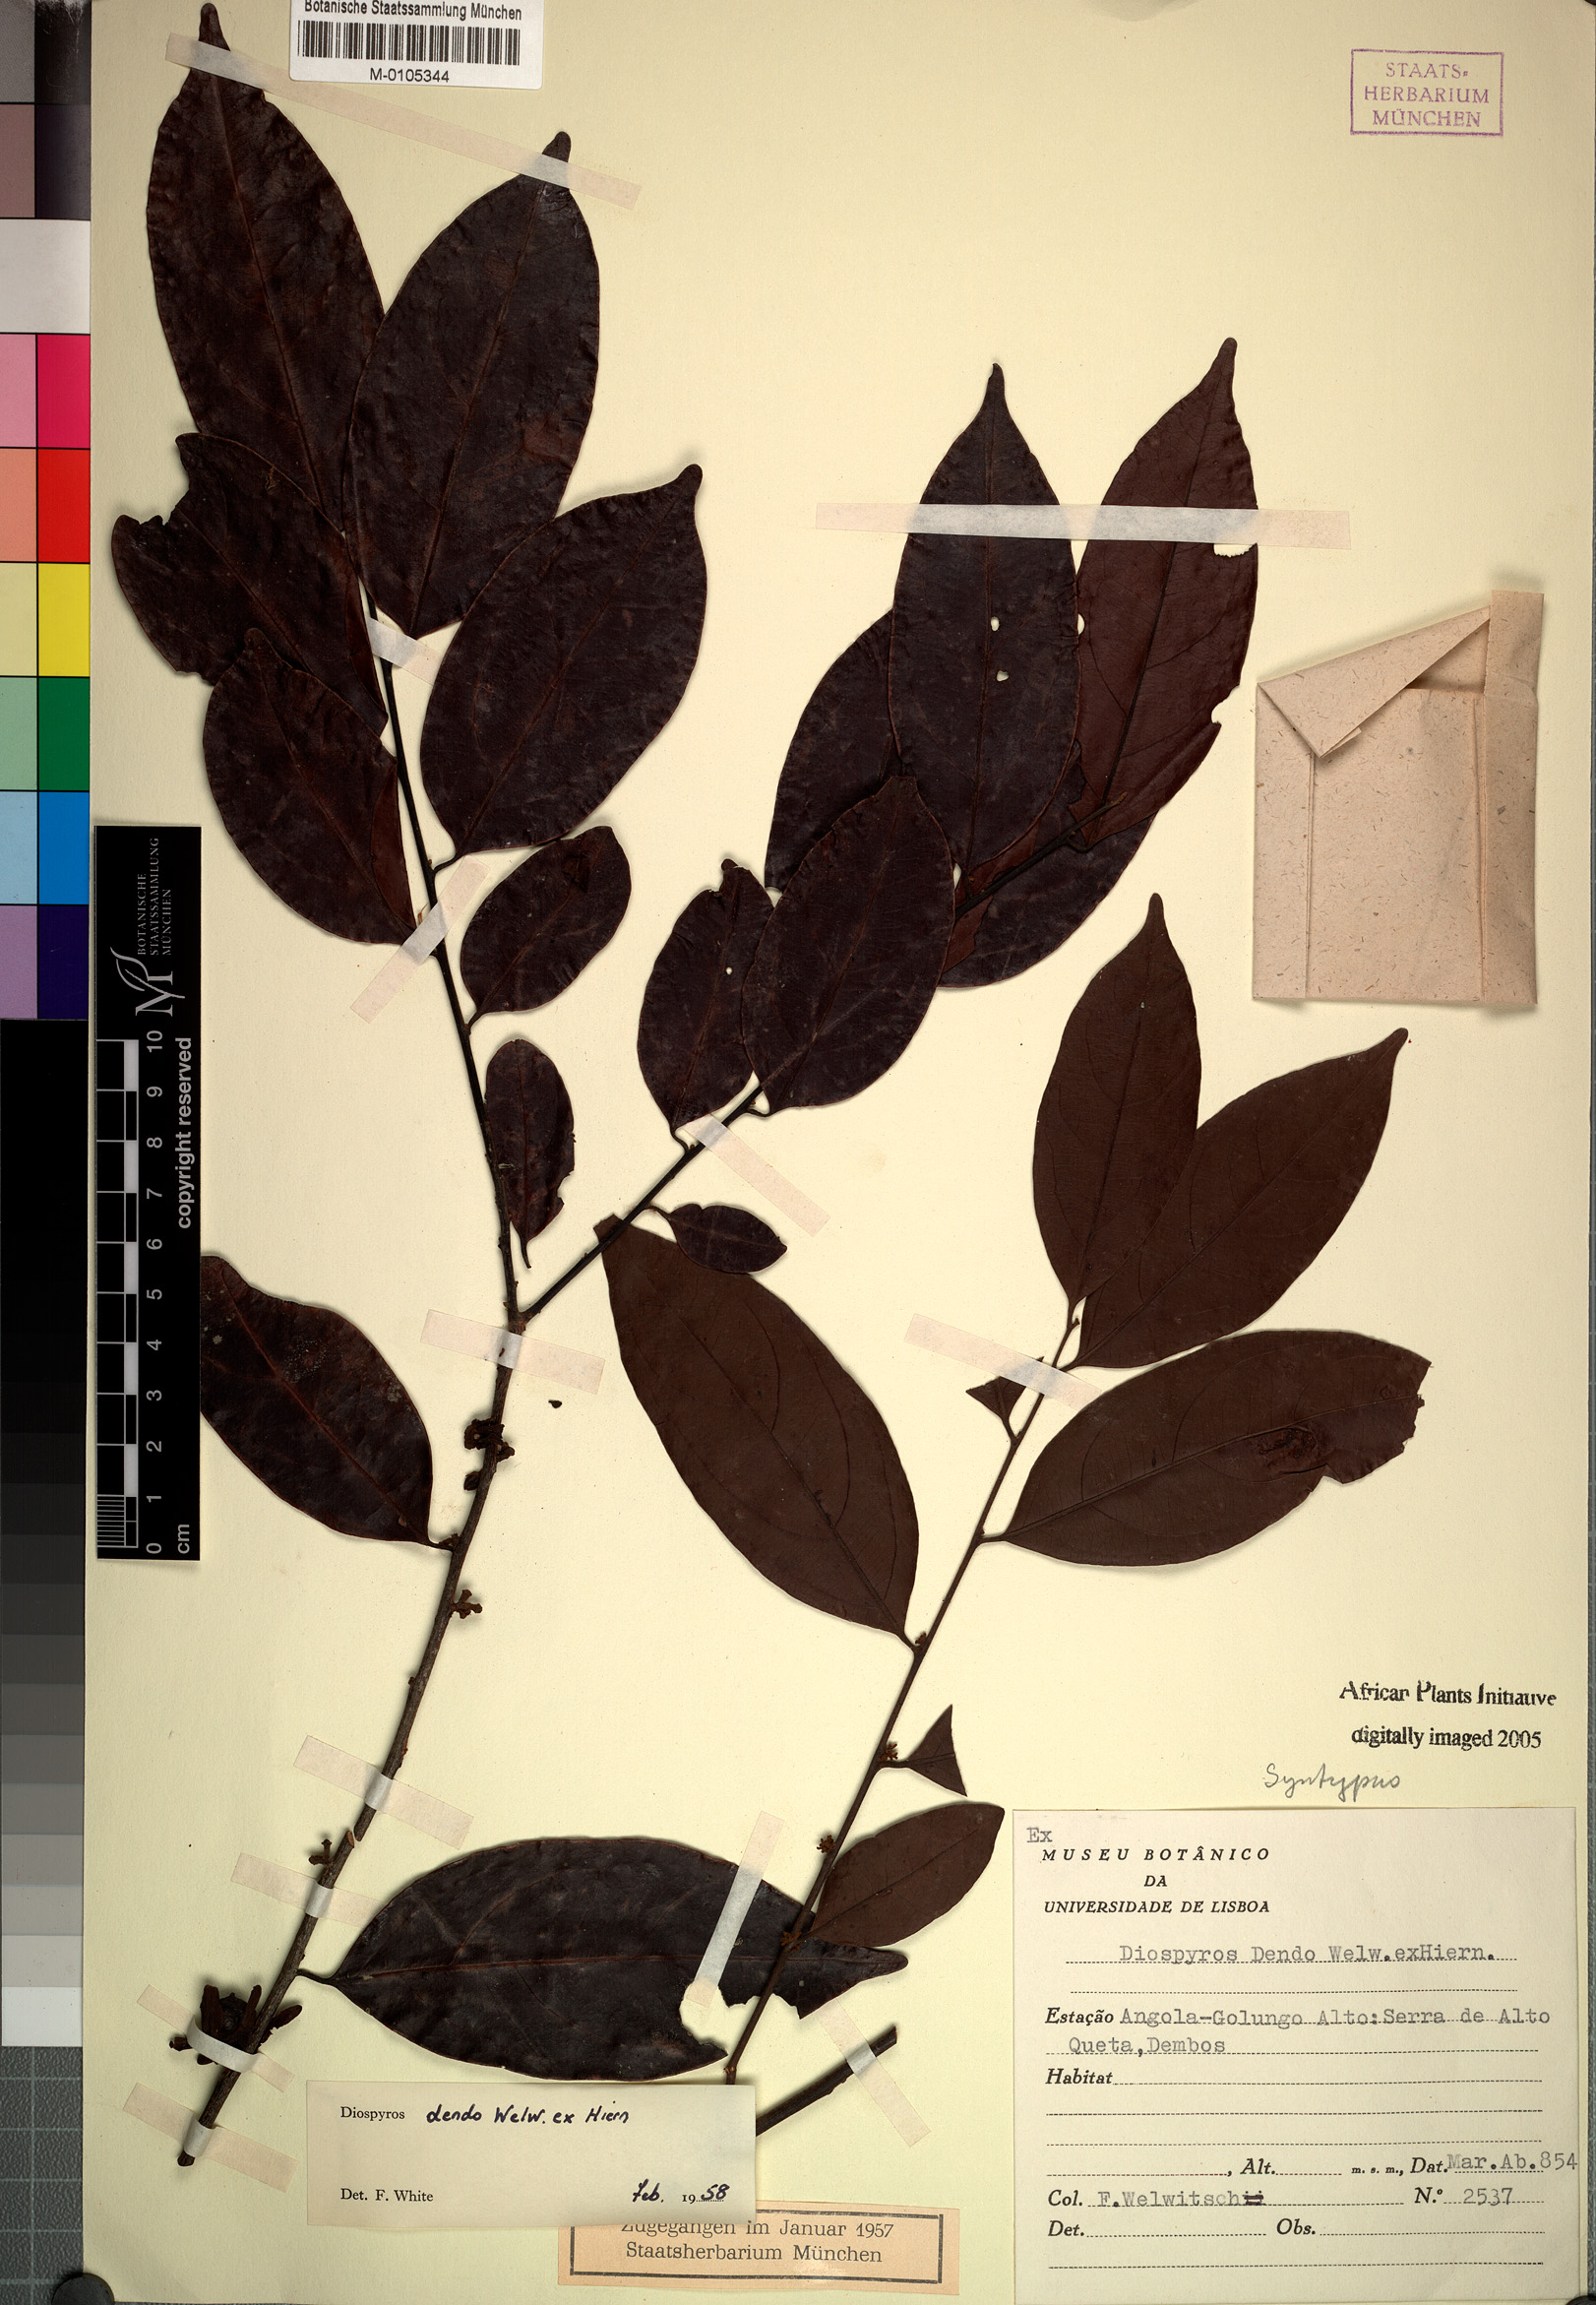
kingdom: Plantae
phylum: Tracheophyta
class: Magnoliopsida
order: Ericales
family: Ebenaceae
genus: Diospyros
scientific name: Diospyros dendo
